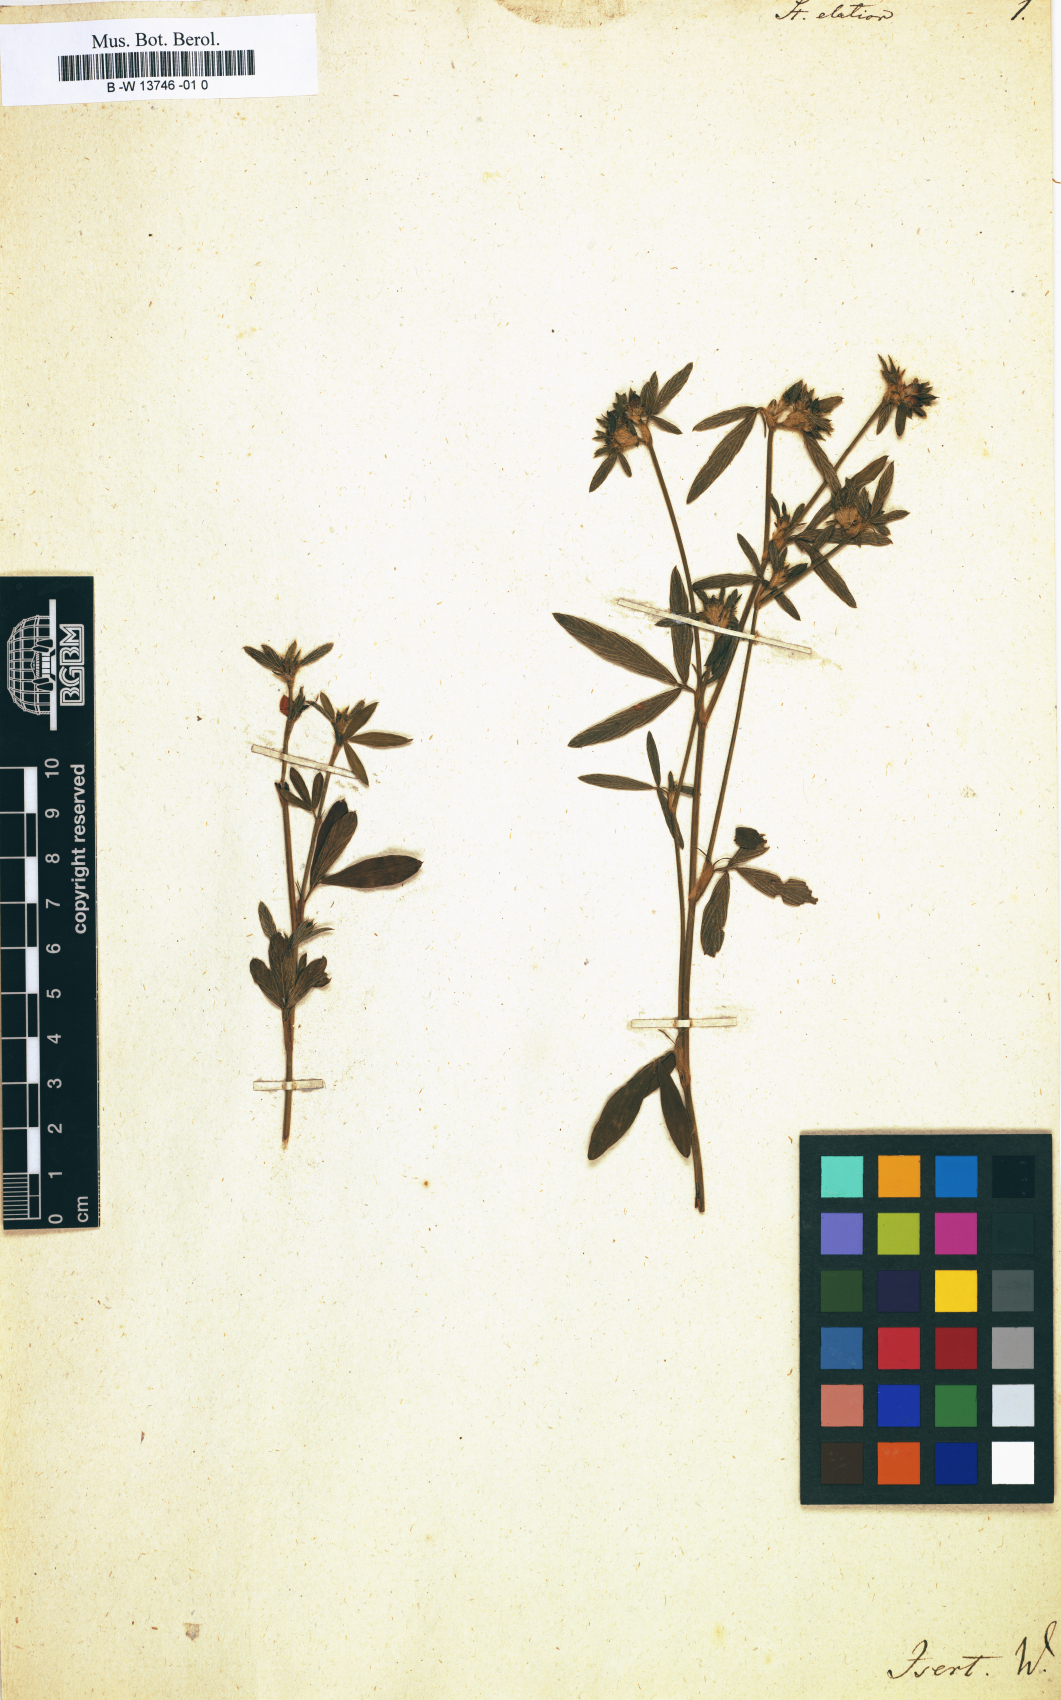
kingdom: Plantae
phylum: Tracheophyta
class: Magnoliopsida
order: Fabales
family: Fabaceae
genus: Stylosanthes
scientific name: Stylosanthes biflora
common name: Two-flower pencil-flower
